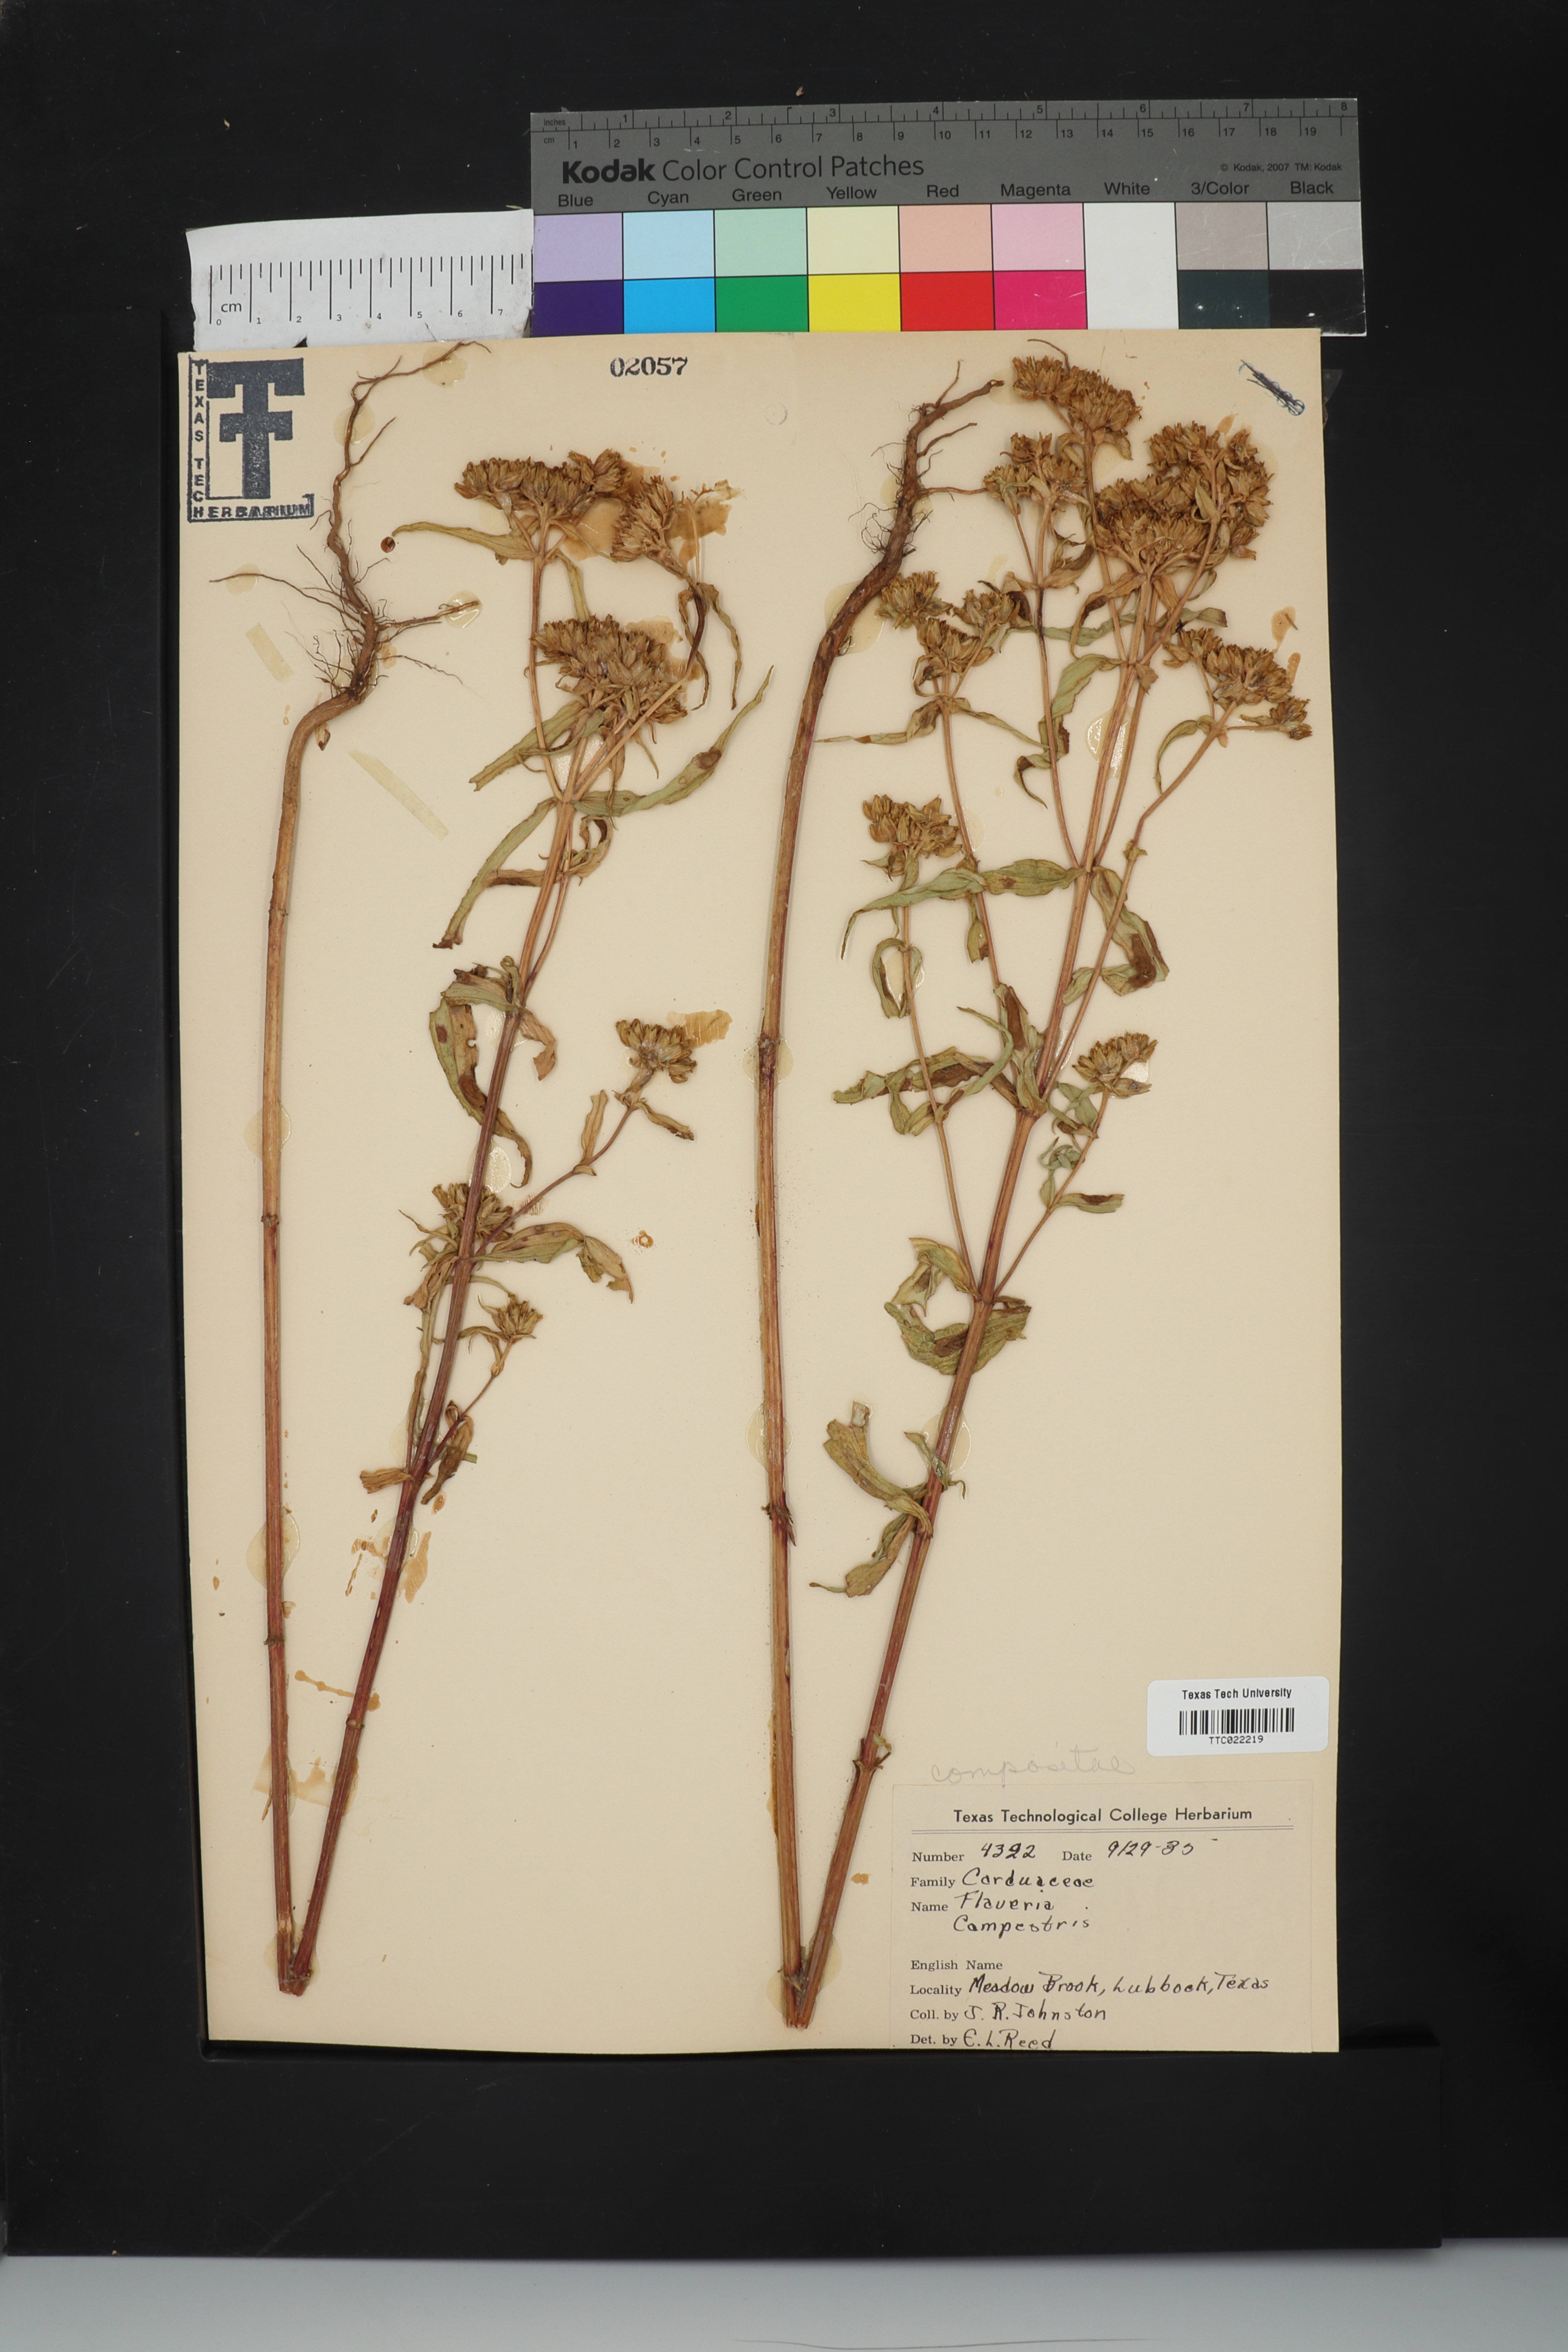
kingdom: Plantae
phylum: Tracheophyta
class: Magnoliopsida
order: Asterales
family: Asteraceae
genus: Flaveria
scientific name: Flaveria campestris
